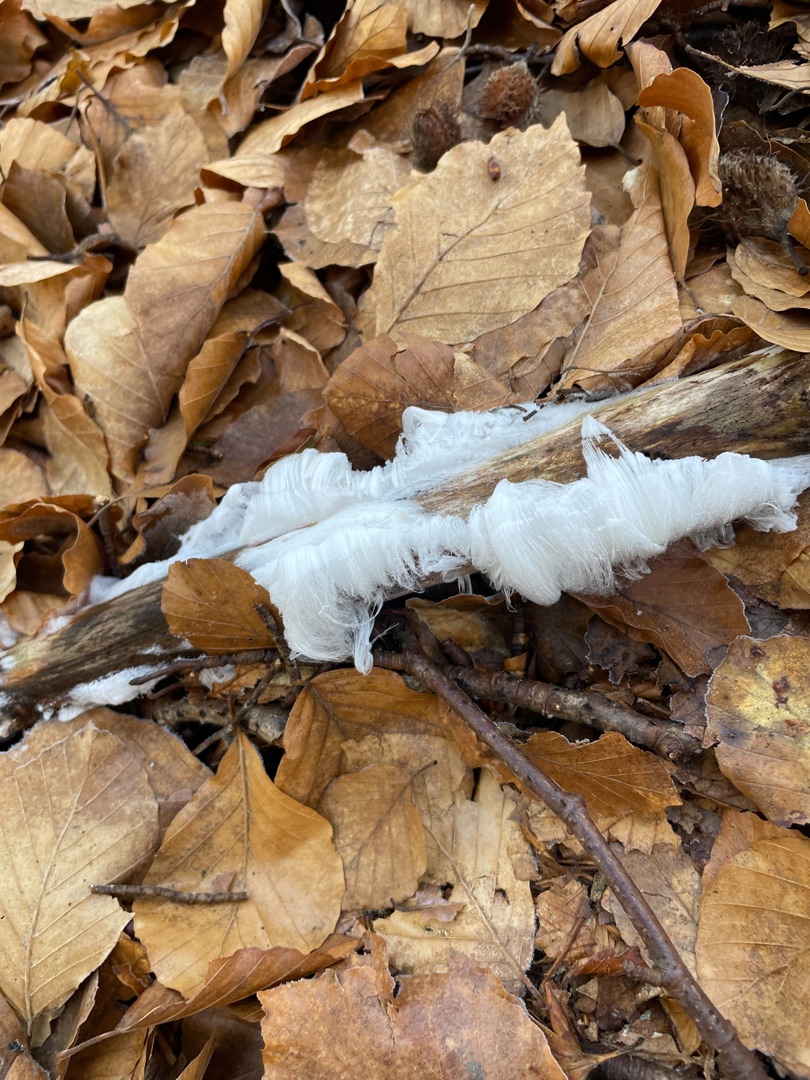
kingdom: Fungi
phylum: Basidiomycota
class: Tremellomycetes
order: Tremellales
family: Exidiaceae
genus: Exidiopsis
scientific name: Exidiopsis effusa
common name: Smuk bævrehinde
